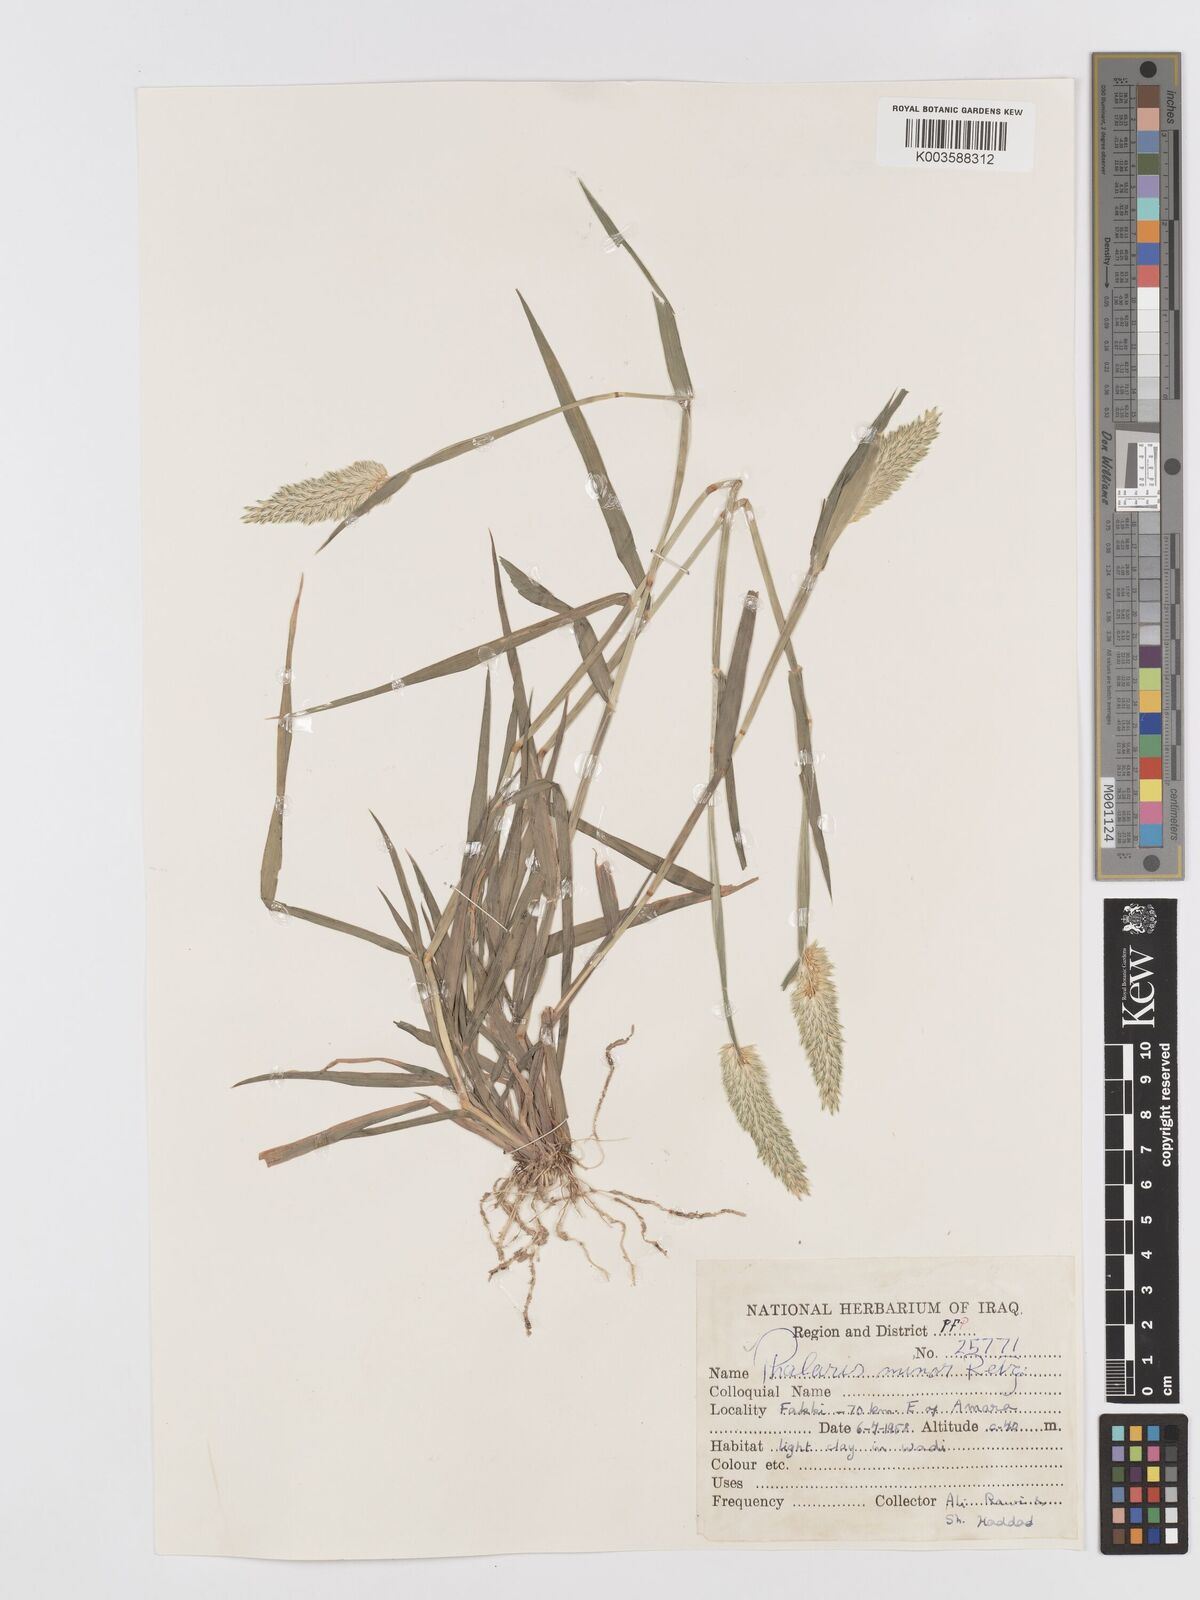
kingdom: Plantae
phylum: Tracheophyta
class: Liliopsida
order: Poales
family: Poaceae
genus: Phalaris
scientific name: Phalaris minor
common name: Littleseed canarygrass
